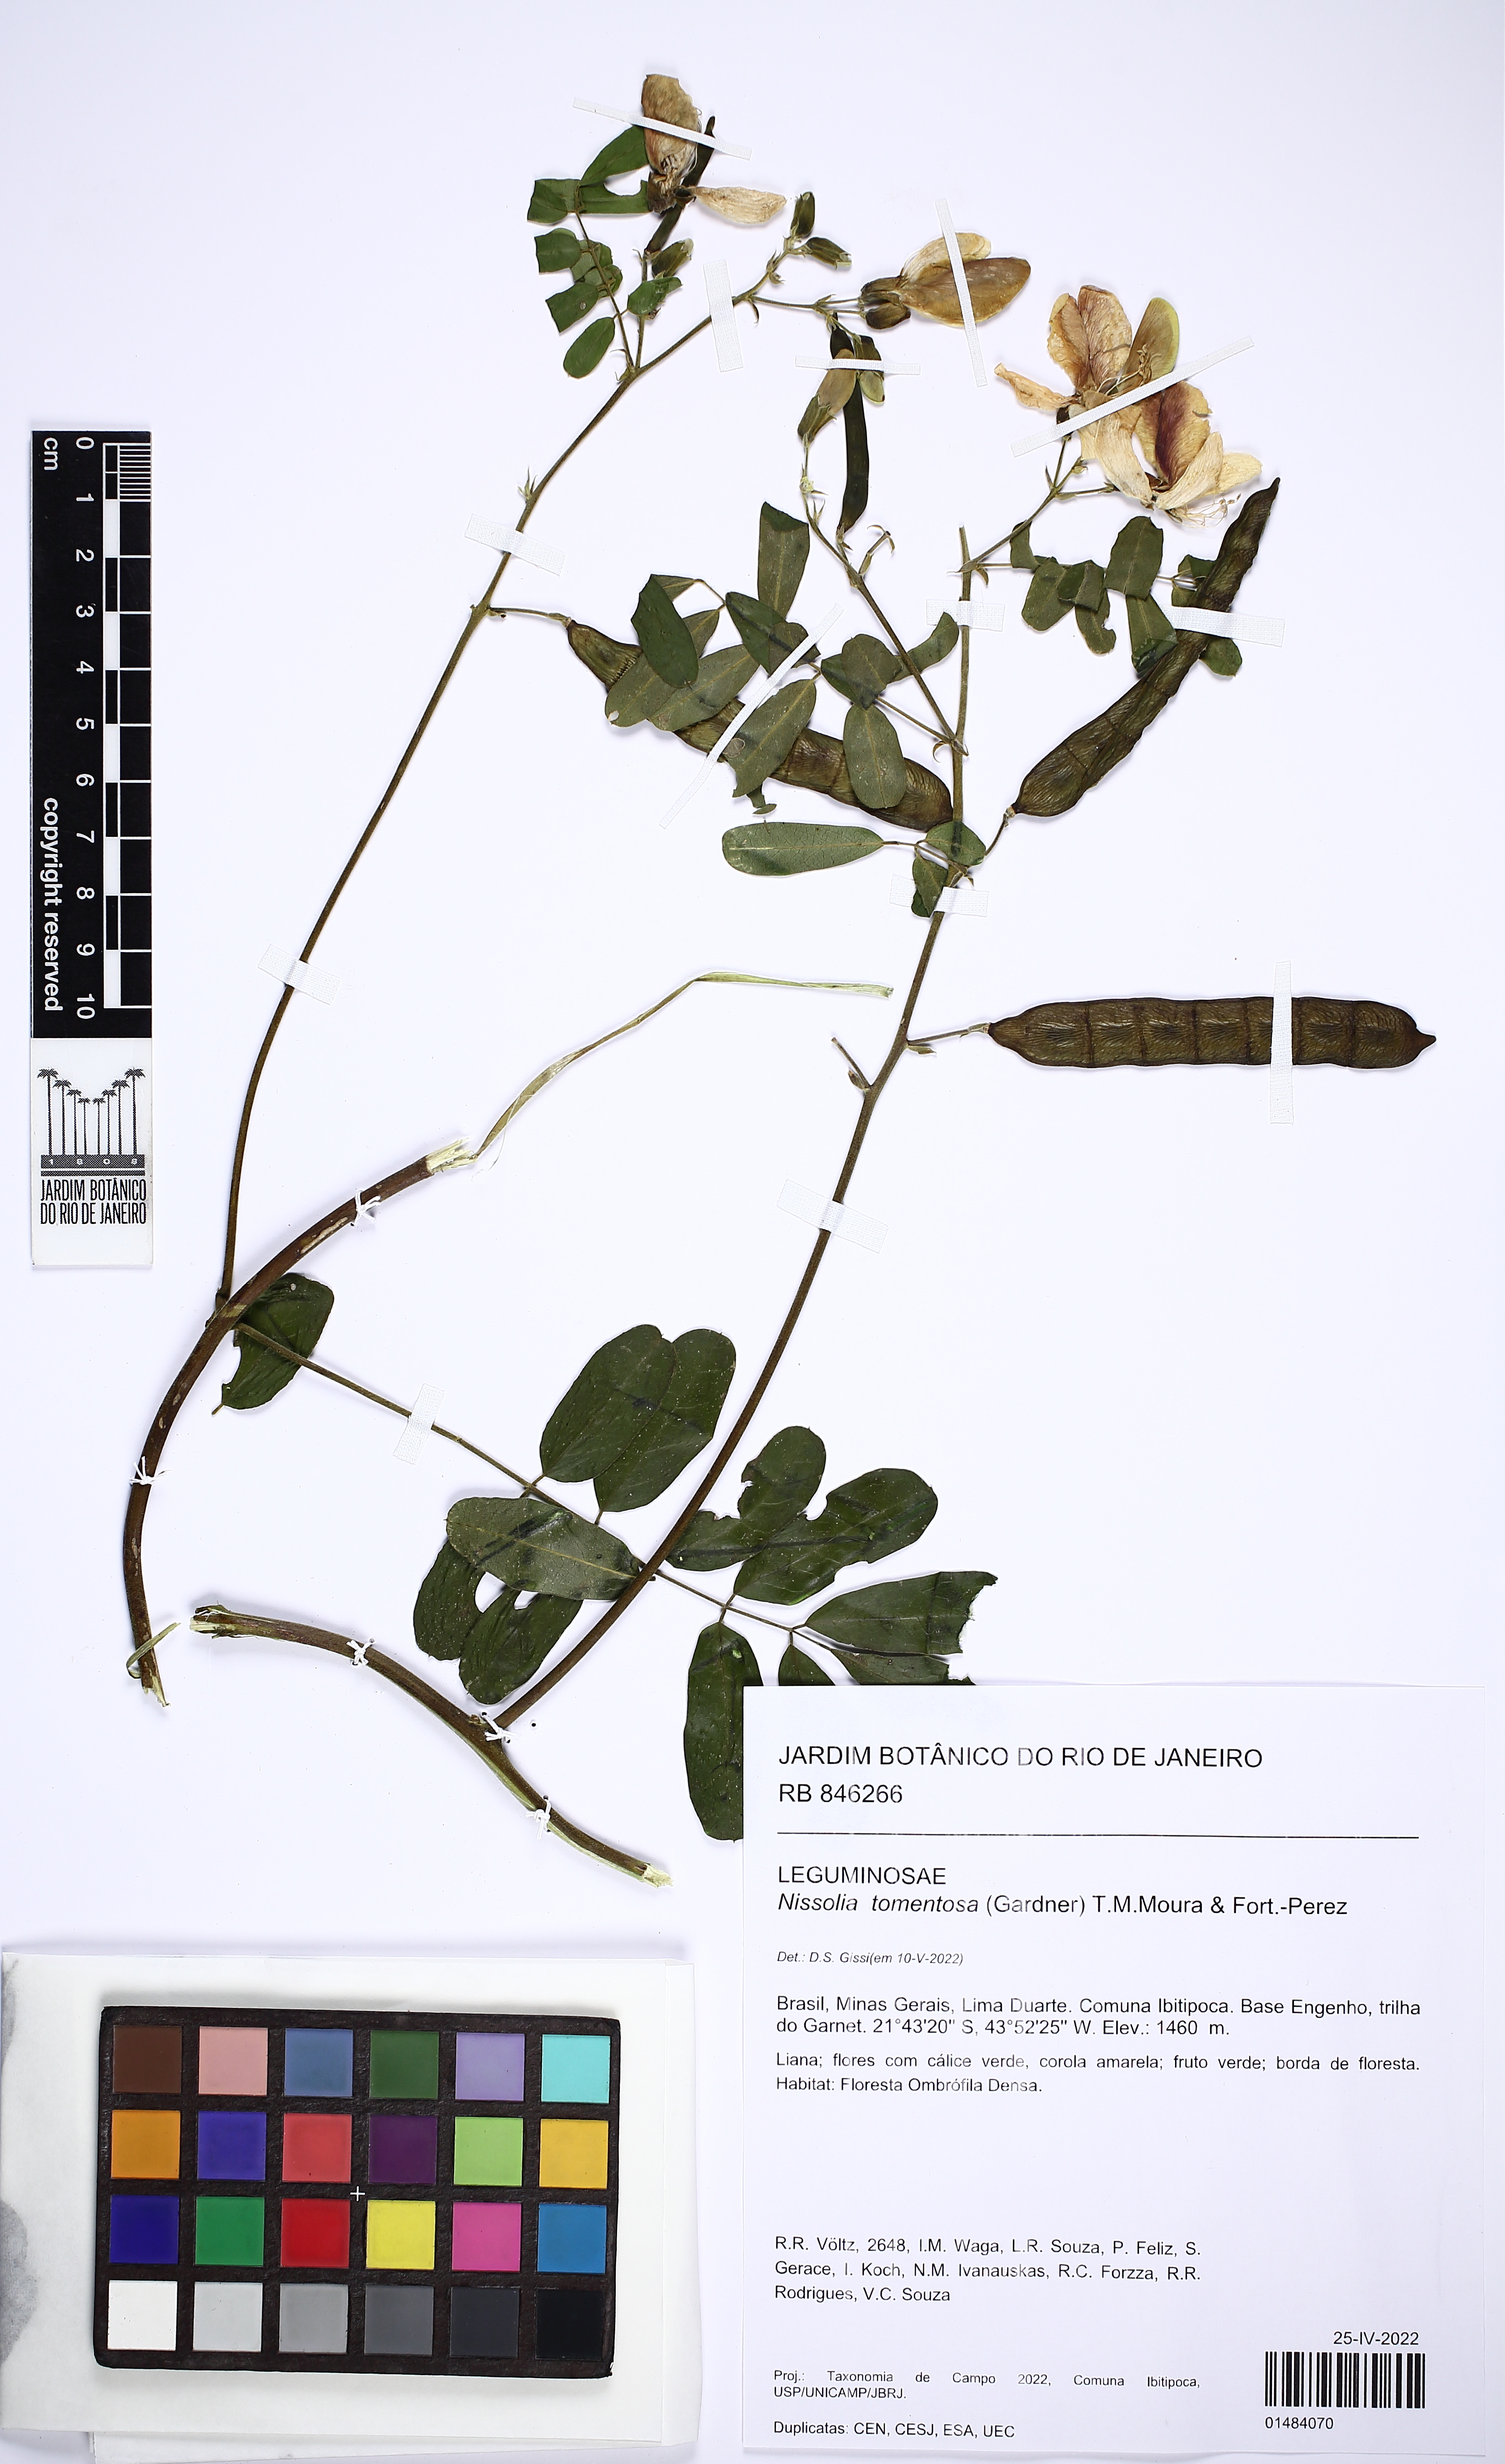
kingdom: Plantae
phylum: Tracheophyta
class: Magnoliopsida
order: Fabales
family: Fabaceae
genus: Nissolia
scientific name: Nissolia tomentosa
